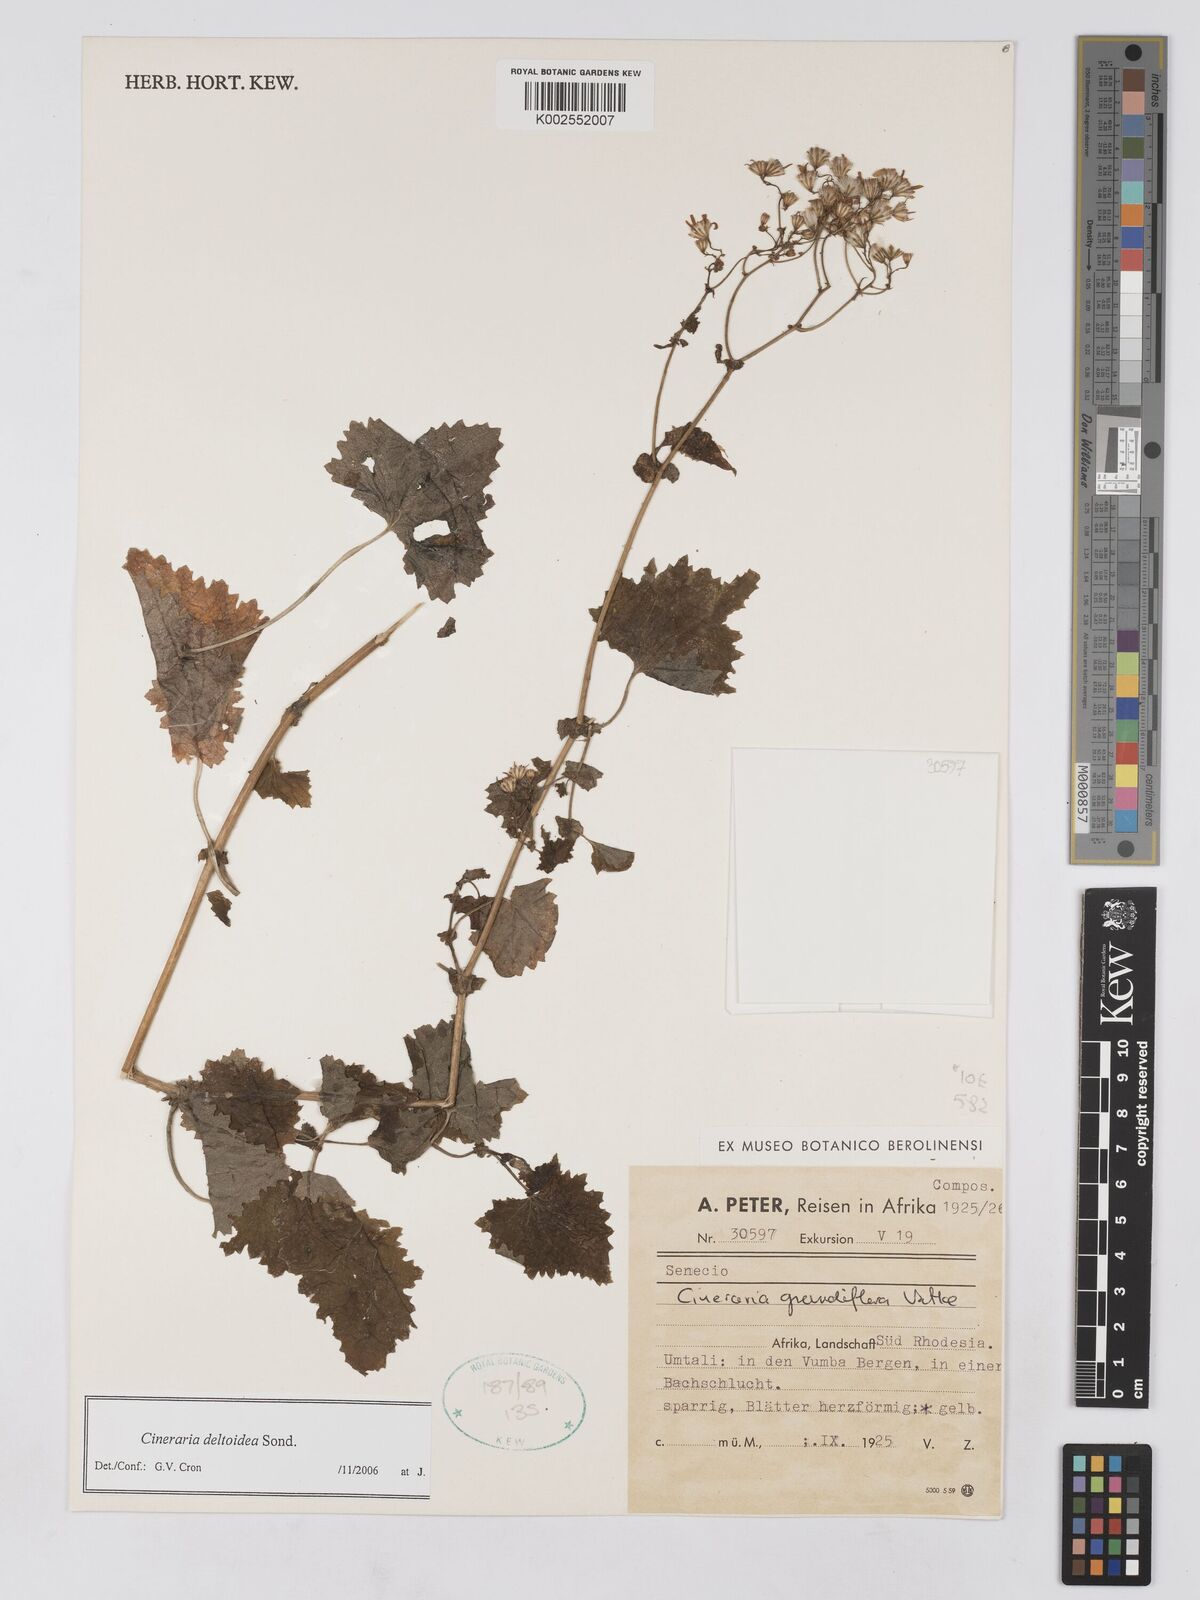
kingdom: Plantae
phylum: Tracheophyta
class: Magnoliopsida
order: Asterales
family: Asteraceae
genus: Cineraria
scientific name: Cineraria deltoidea
